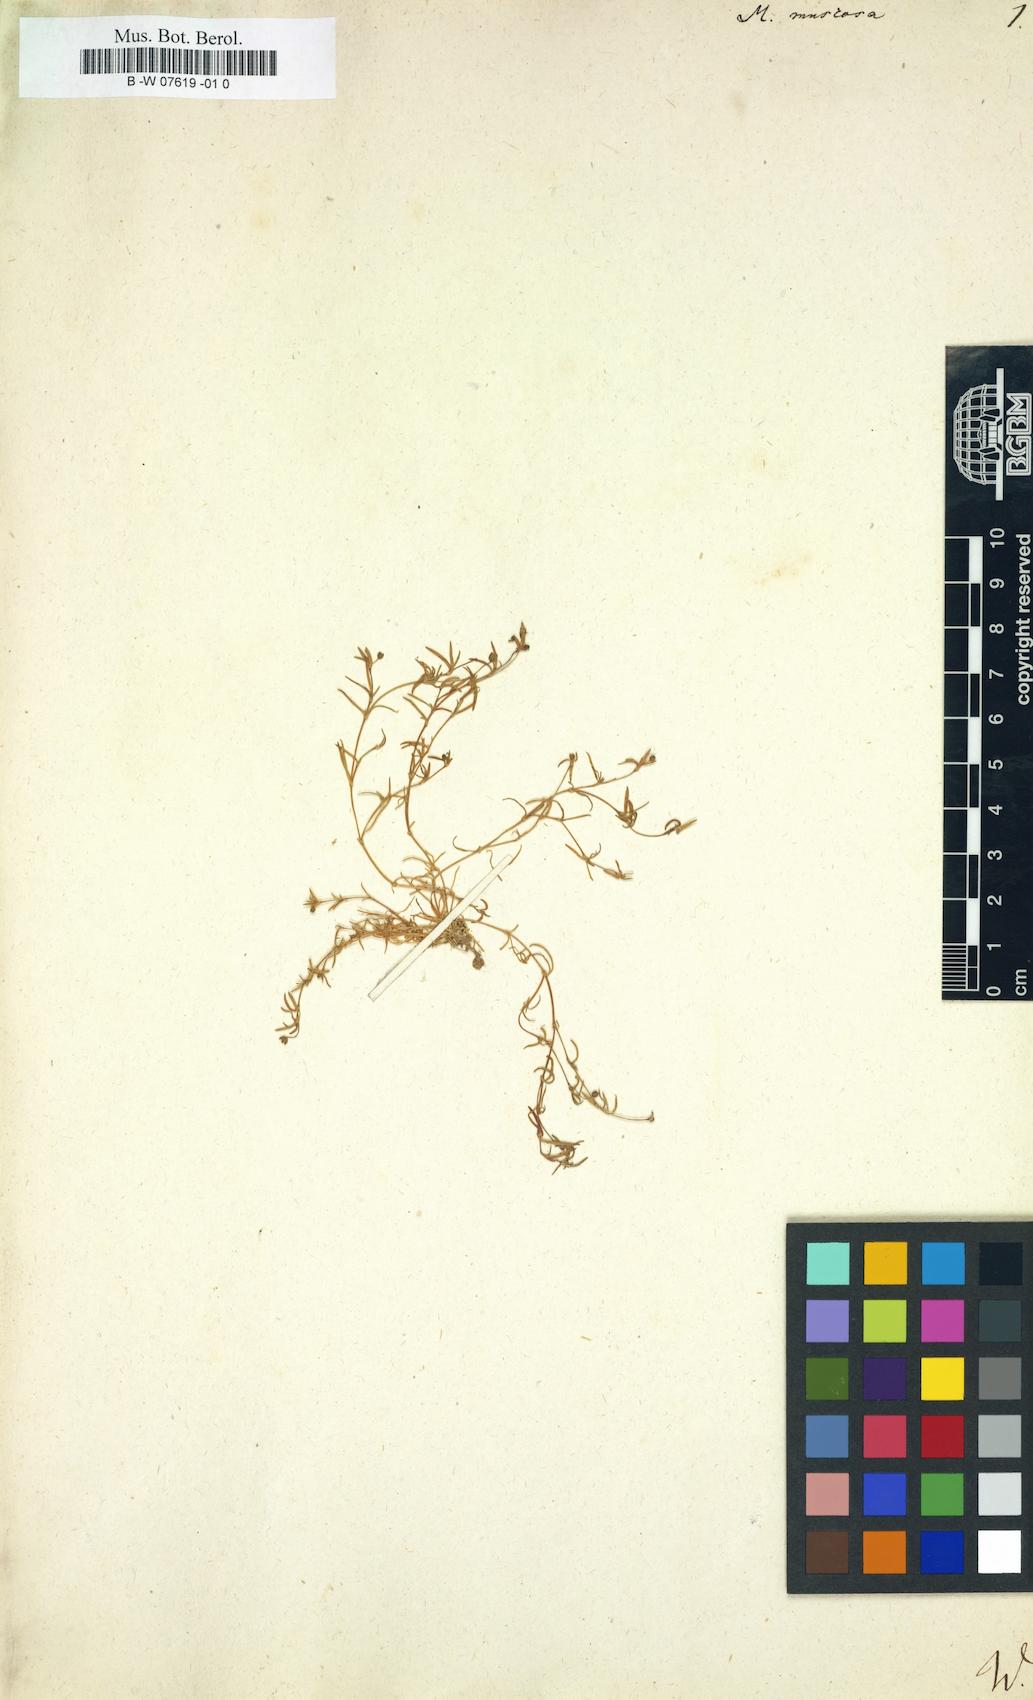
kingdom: Plantae
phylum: Tracheophyta
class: Magnoliopsida
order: Caryophyllales
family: Caryophyllaceae
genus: Moehringia
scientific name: Moehringia muscosa
